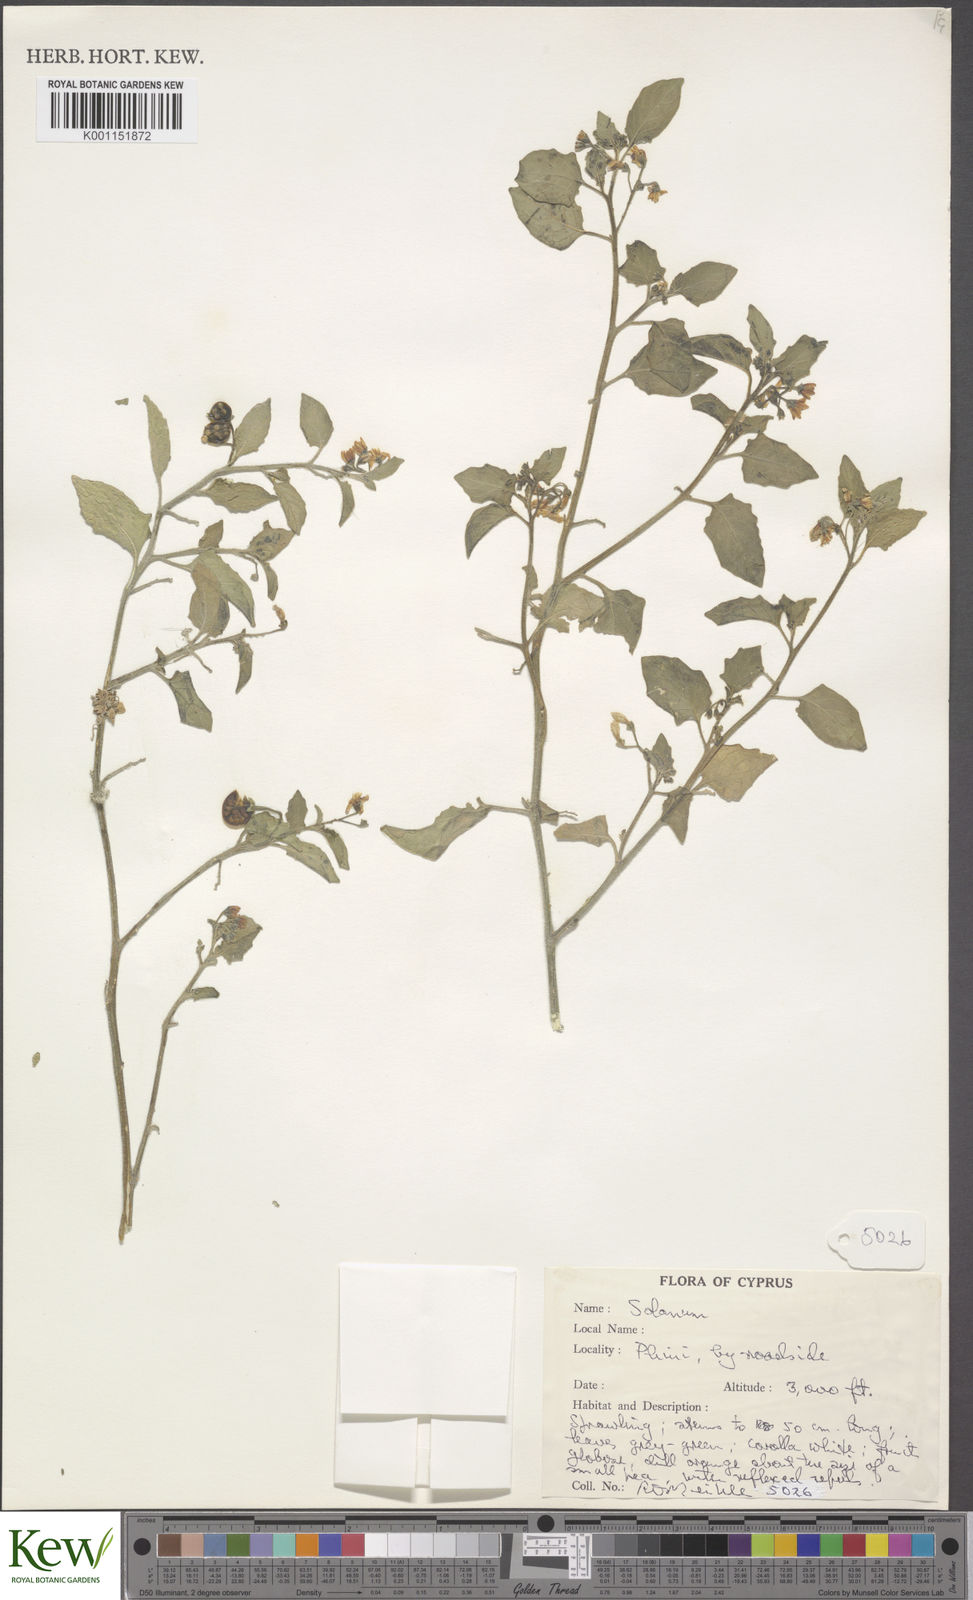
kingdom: Plantae
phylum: Tracheophyta
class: Magnoliopsida
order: Solanales
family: Solanaceae
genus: Solanum
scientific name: Solanum villosum
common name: Red nightshade
